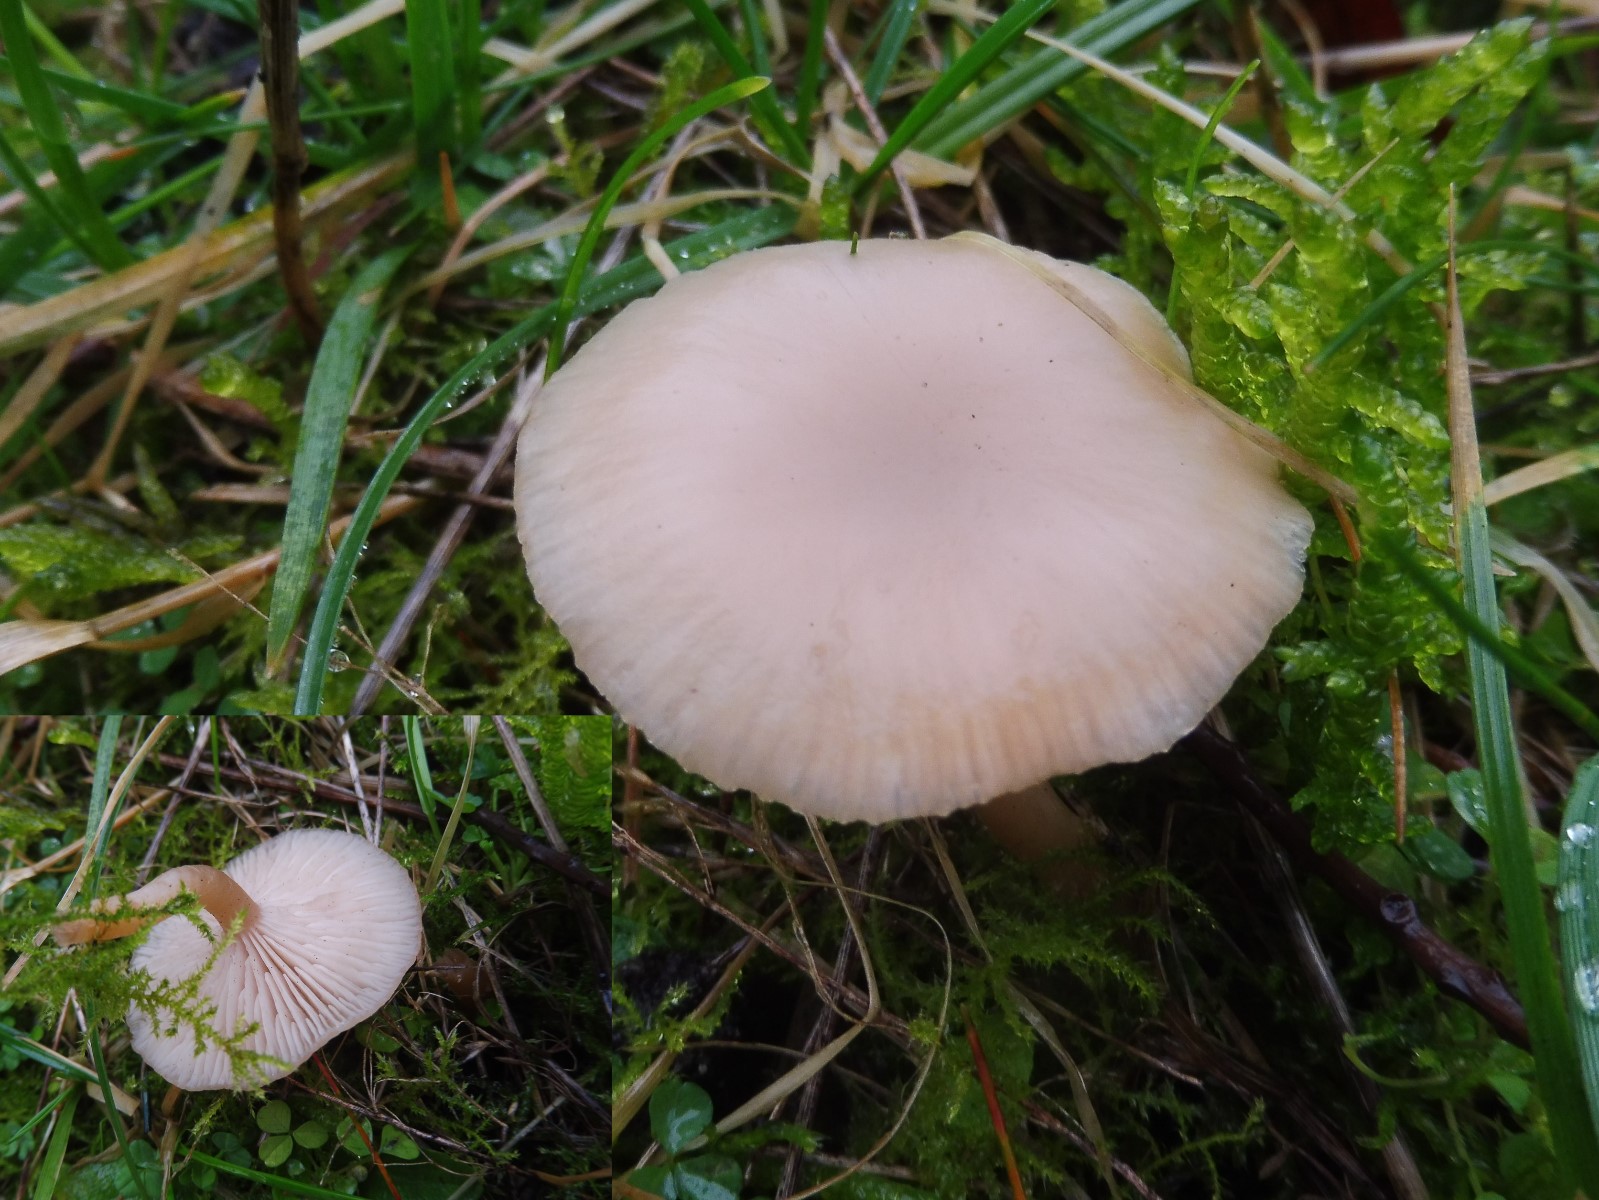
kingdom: Fungi
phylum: Basidiomycota
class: Agaricomycetes
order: Agaricales
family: Tricholomataceae
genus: Clitocybe
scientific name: Clitocybe fragrans
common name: vellugtende tragthat
